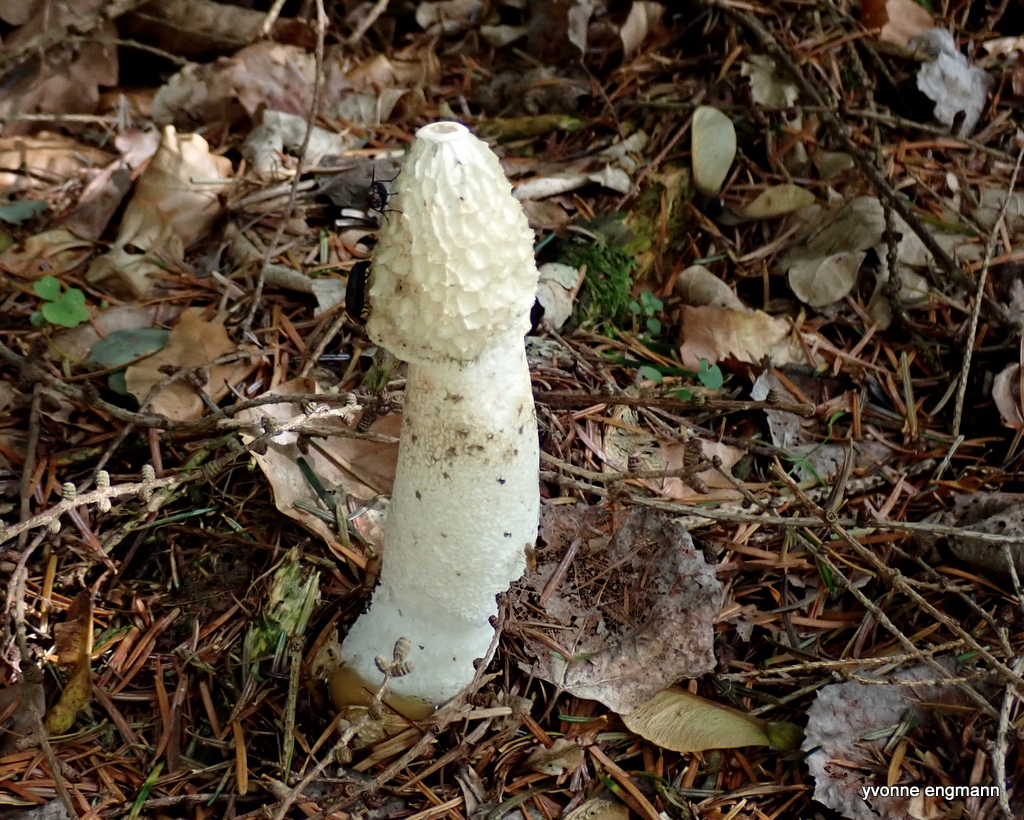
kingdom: Fungi
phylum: Basidiomycota
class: Agaricomycetes
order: Phallales
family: Phallaceae
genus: Phallus
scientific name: Phallus impudicus
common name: almindelig stinksvamp
